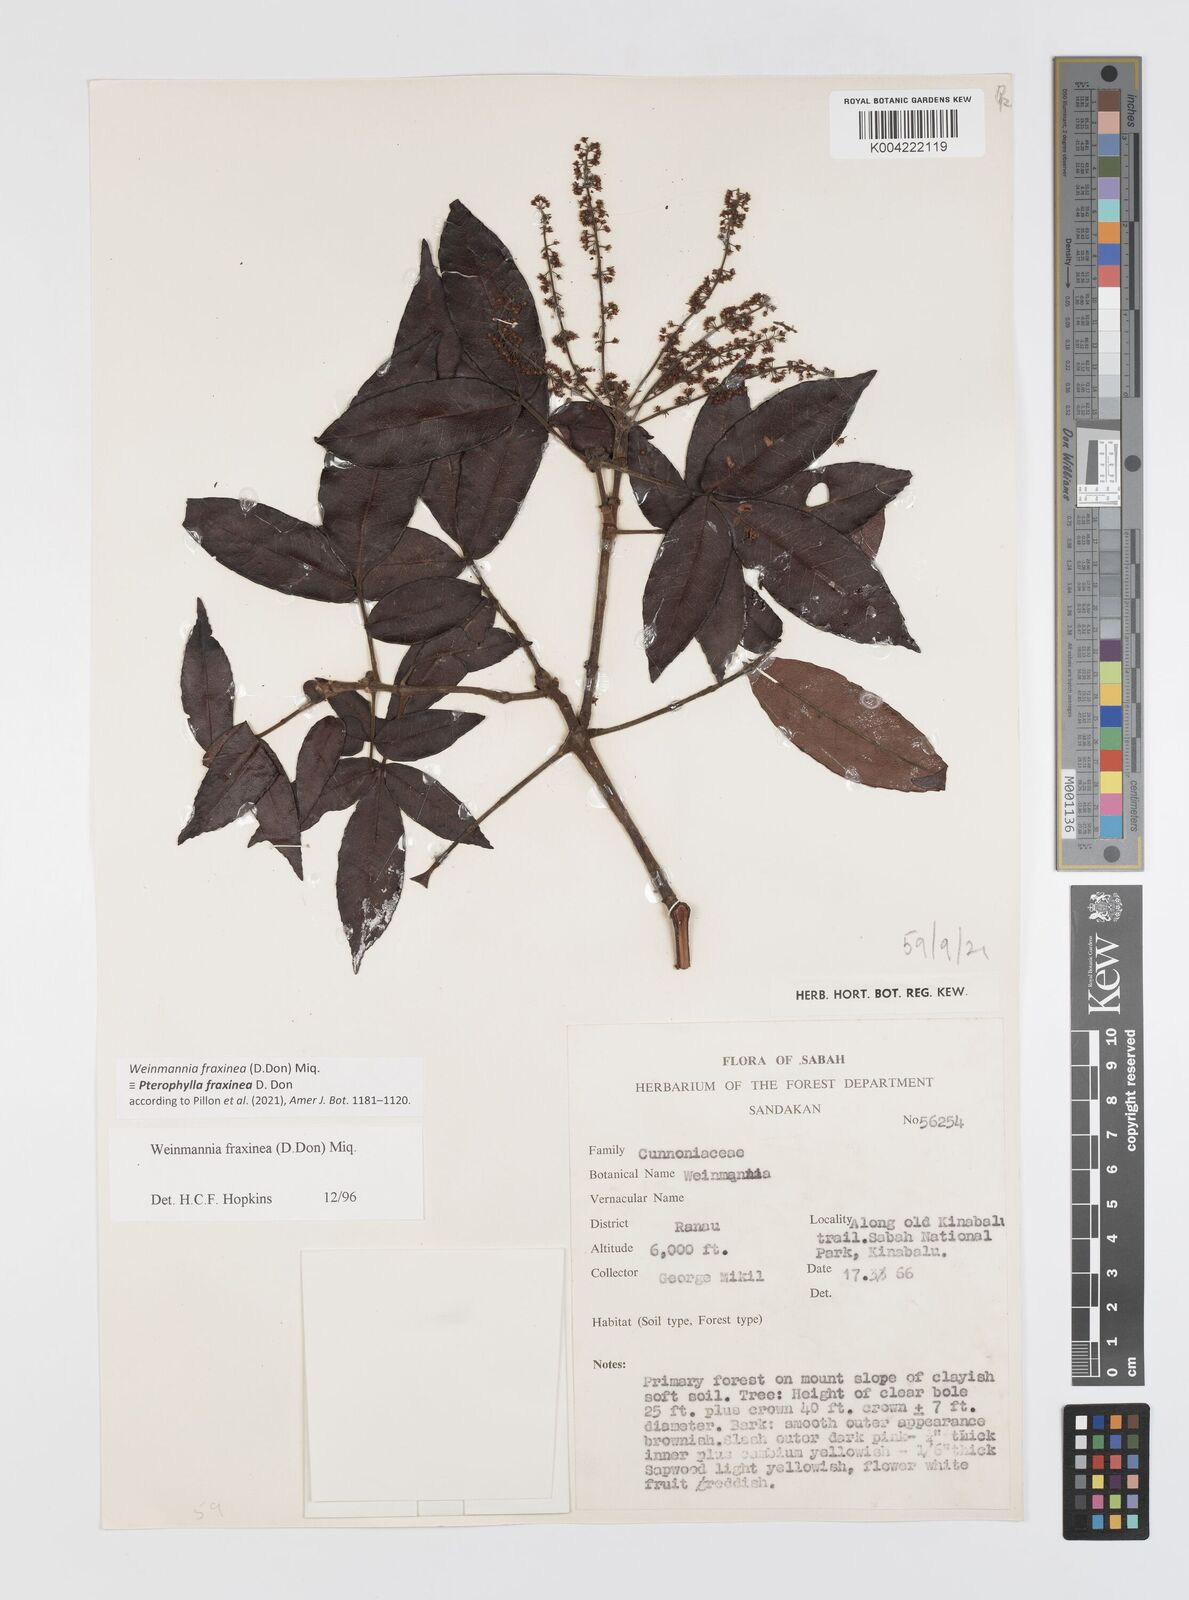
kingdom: Plantae
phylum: Tracheophyta
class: Magnoliopsida
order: Oxalidales
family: Cunoniaceae
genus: Pterophylla
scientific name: Pterophylla fraxinea
